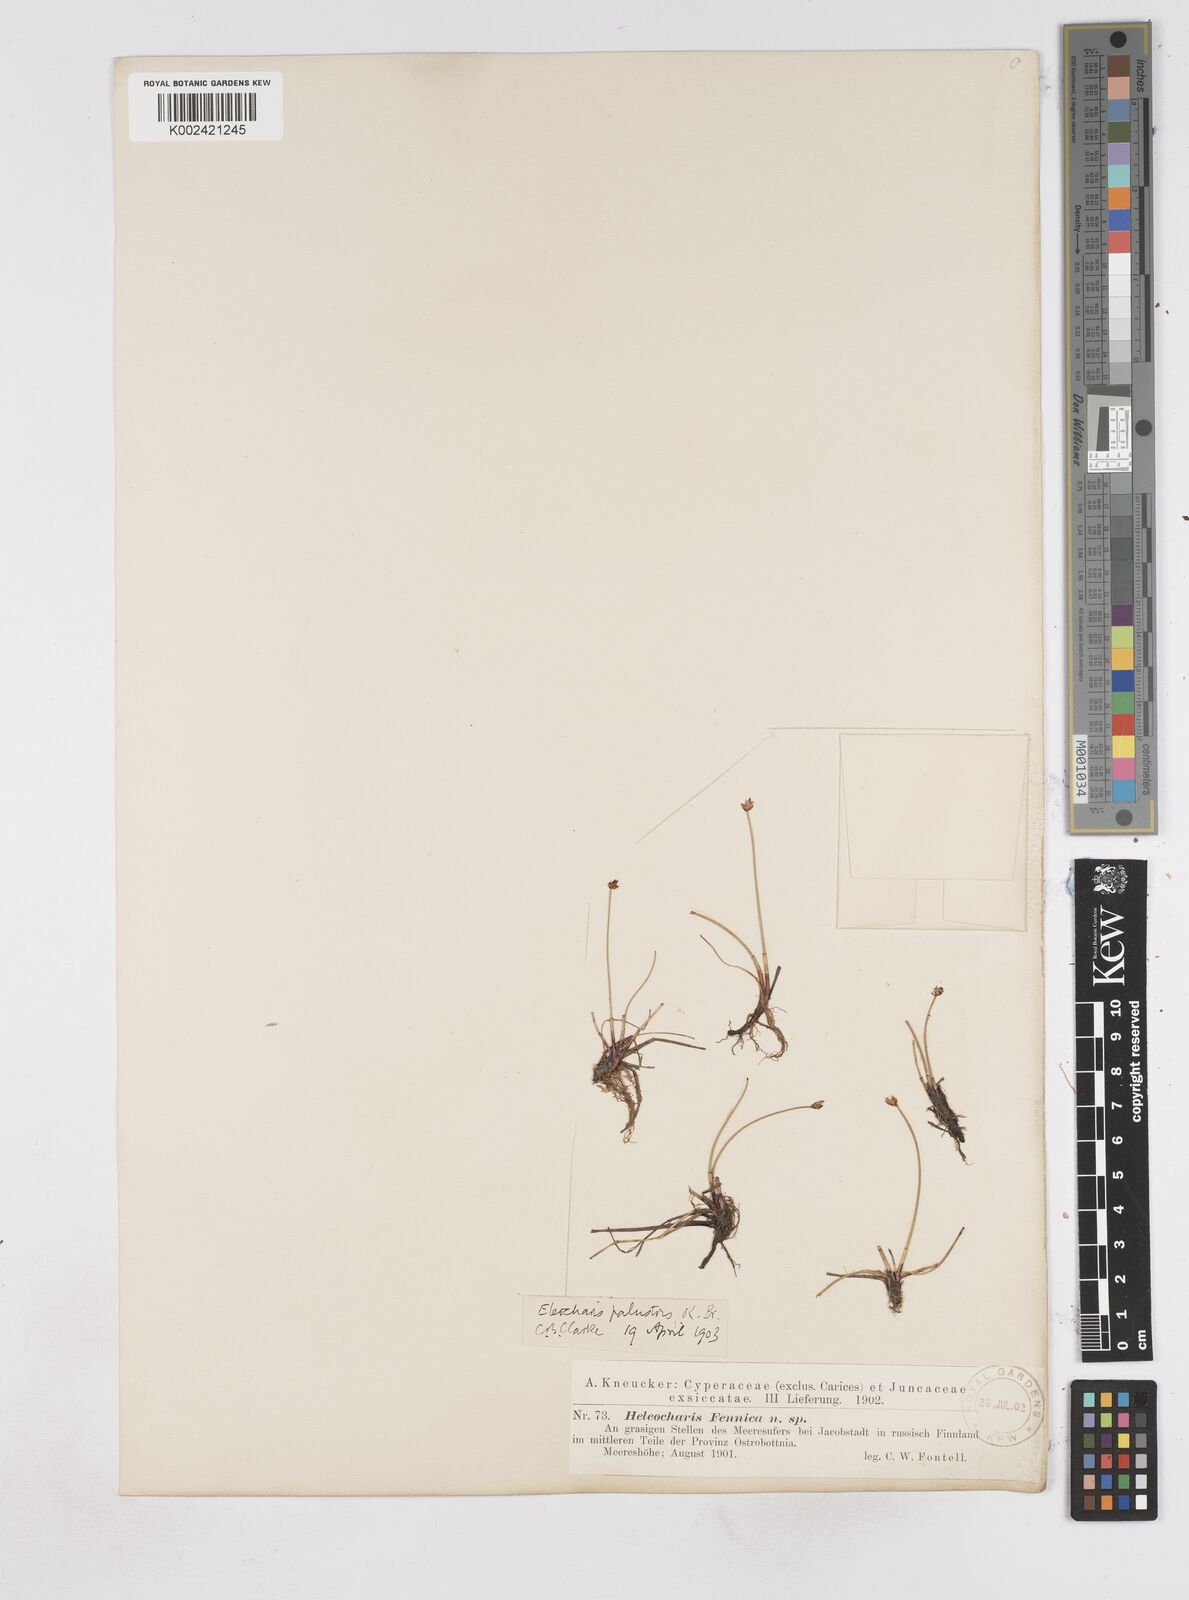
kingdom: Plantae
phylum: Tracheophyta
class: Liliopsida
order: Poales
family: Cyperaceae
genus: Eleocharis
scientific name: Eleocharis palustris
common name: Common spike-rush
